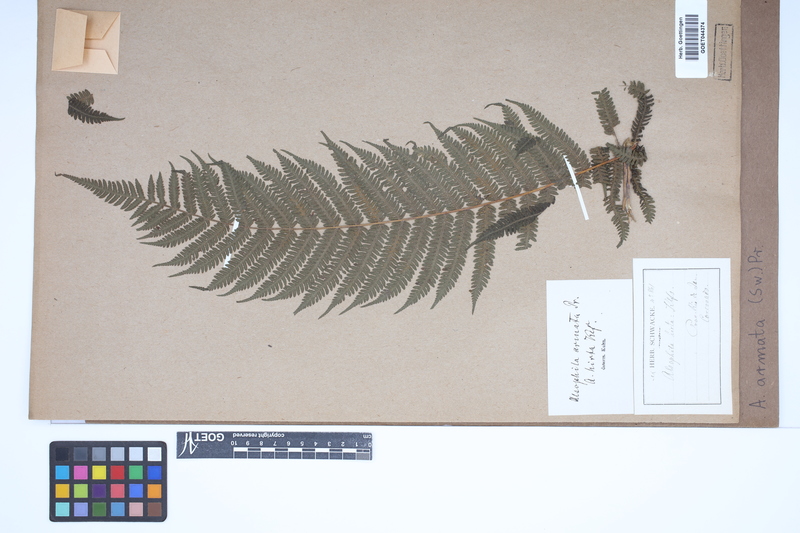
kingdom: Plantae
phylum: Tracheophyta
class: Polypodiopsida
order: Cyatheales
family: Cyatheaceae
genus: Cyathea
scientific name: Cyathea armata
